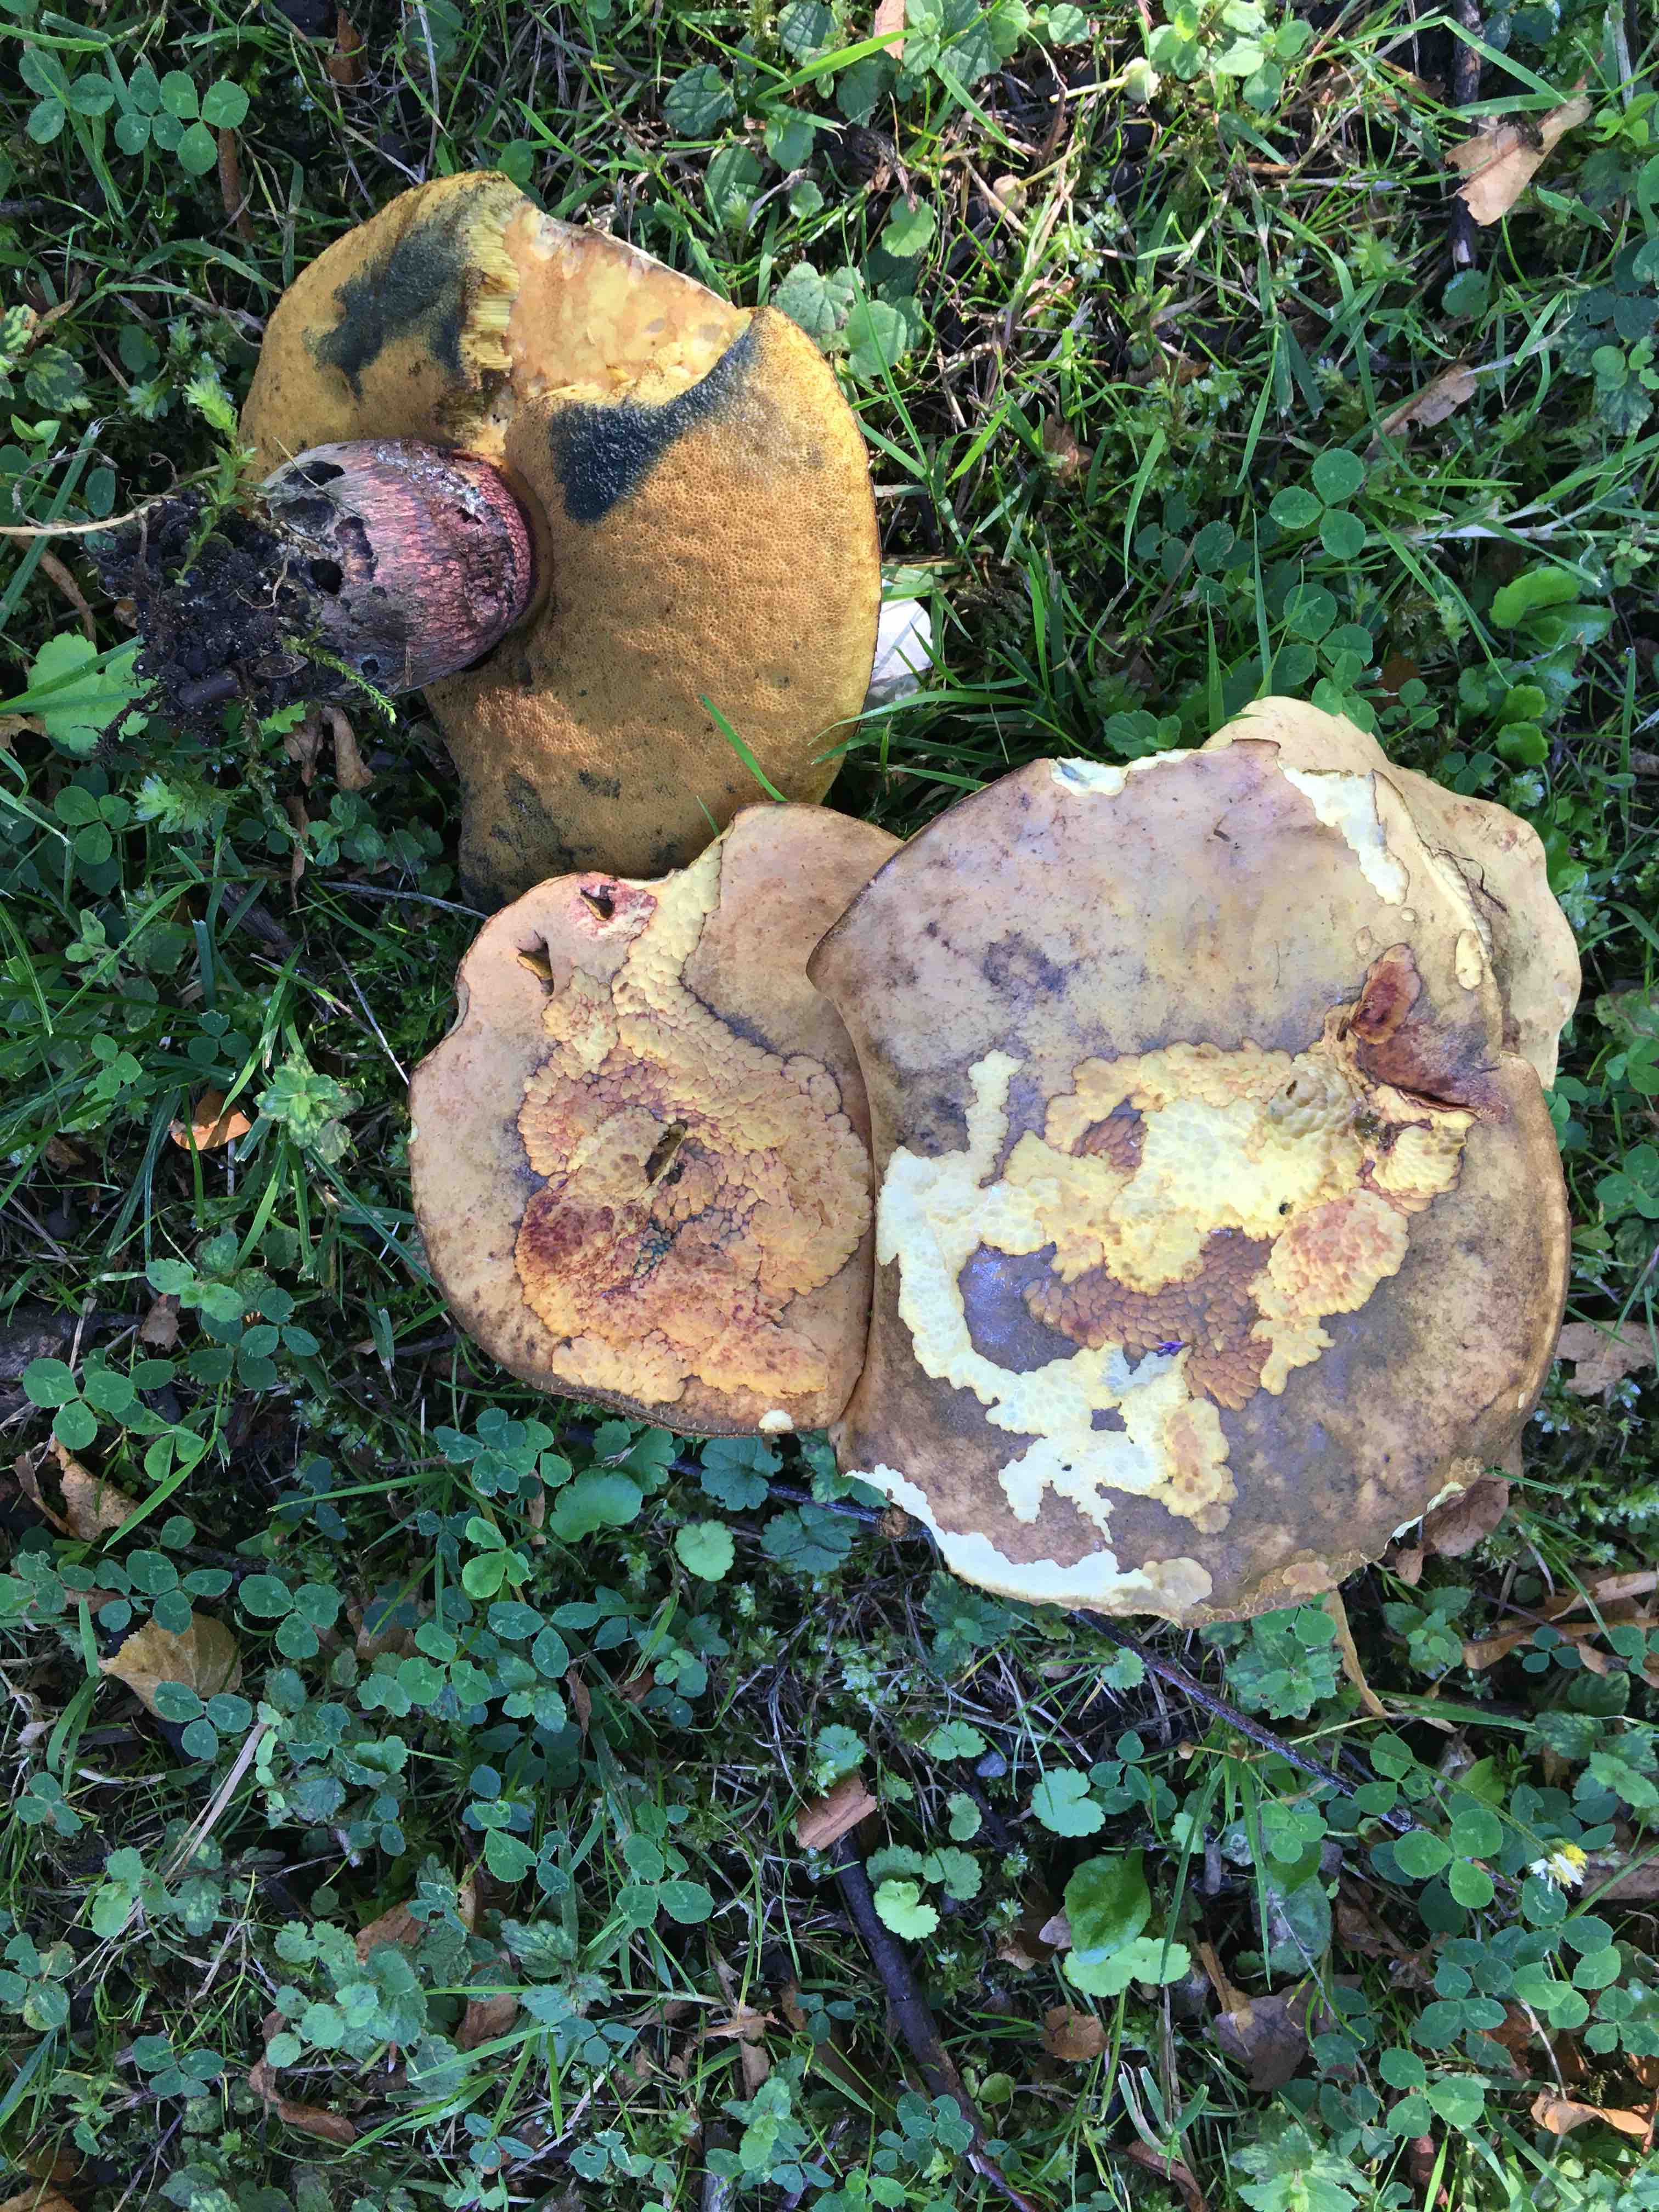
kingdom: Fungi
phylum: Basidiomycota
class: Agaricomycetes
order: Boletales
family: Boletaceae
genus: Suillellus
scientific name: Suillellus luridus
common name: netstokket indigorørhat
